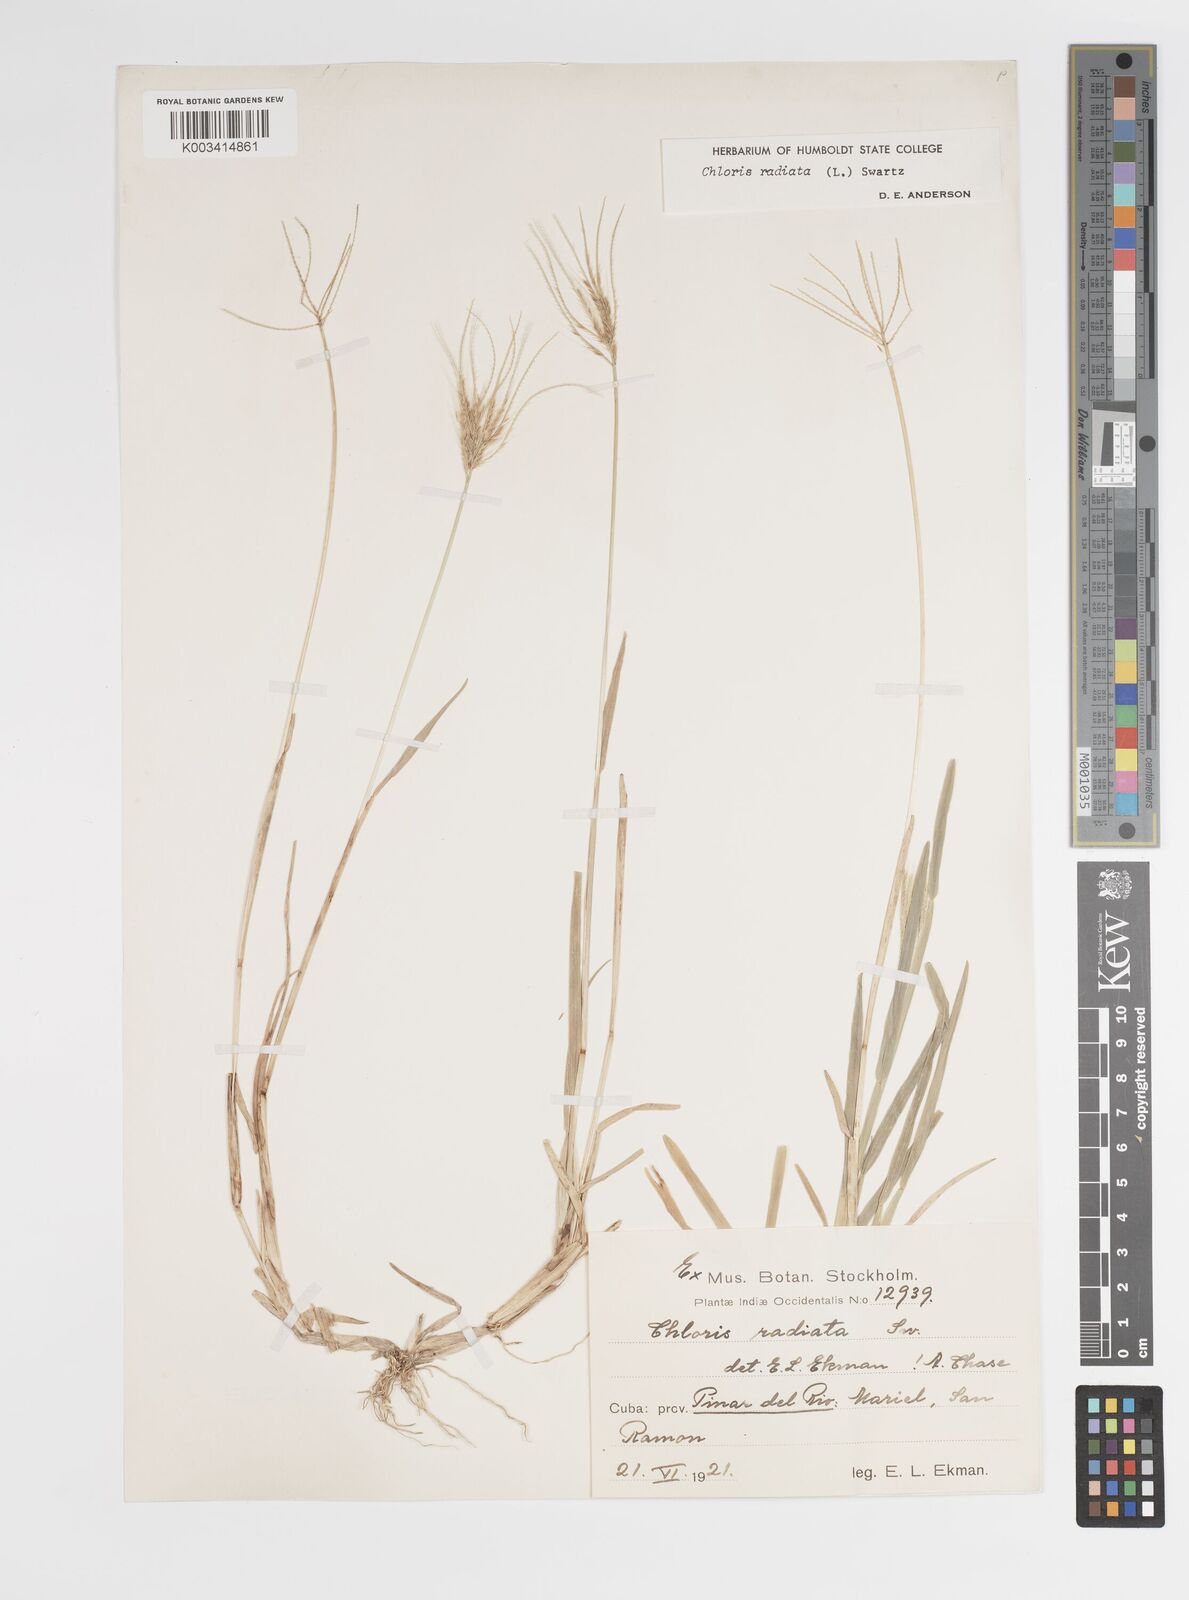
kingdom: Plantae
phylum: Tracheophyta
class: Liliopsida
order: Poales
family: Poaceae
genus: Chloris
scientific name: Chloris radiata
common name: Radiate fingergrass
